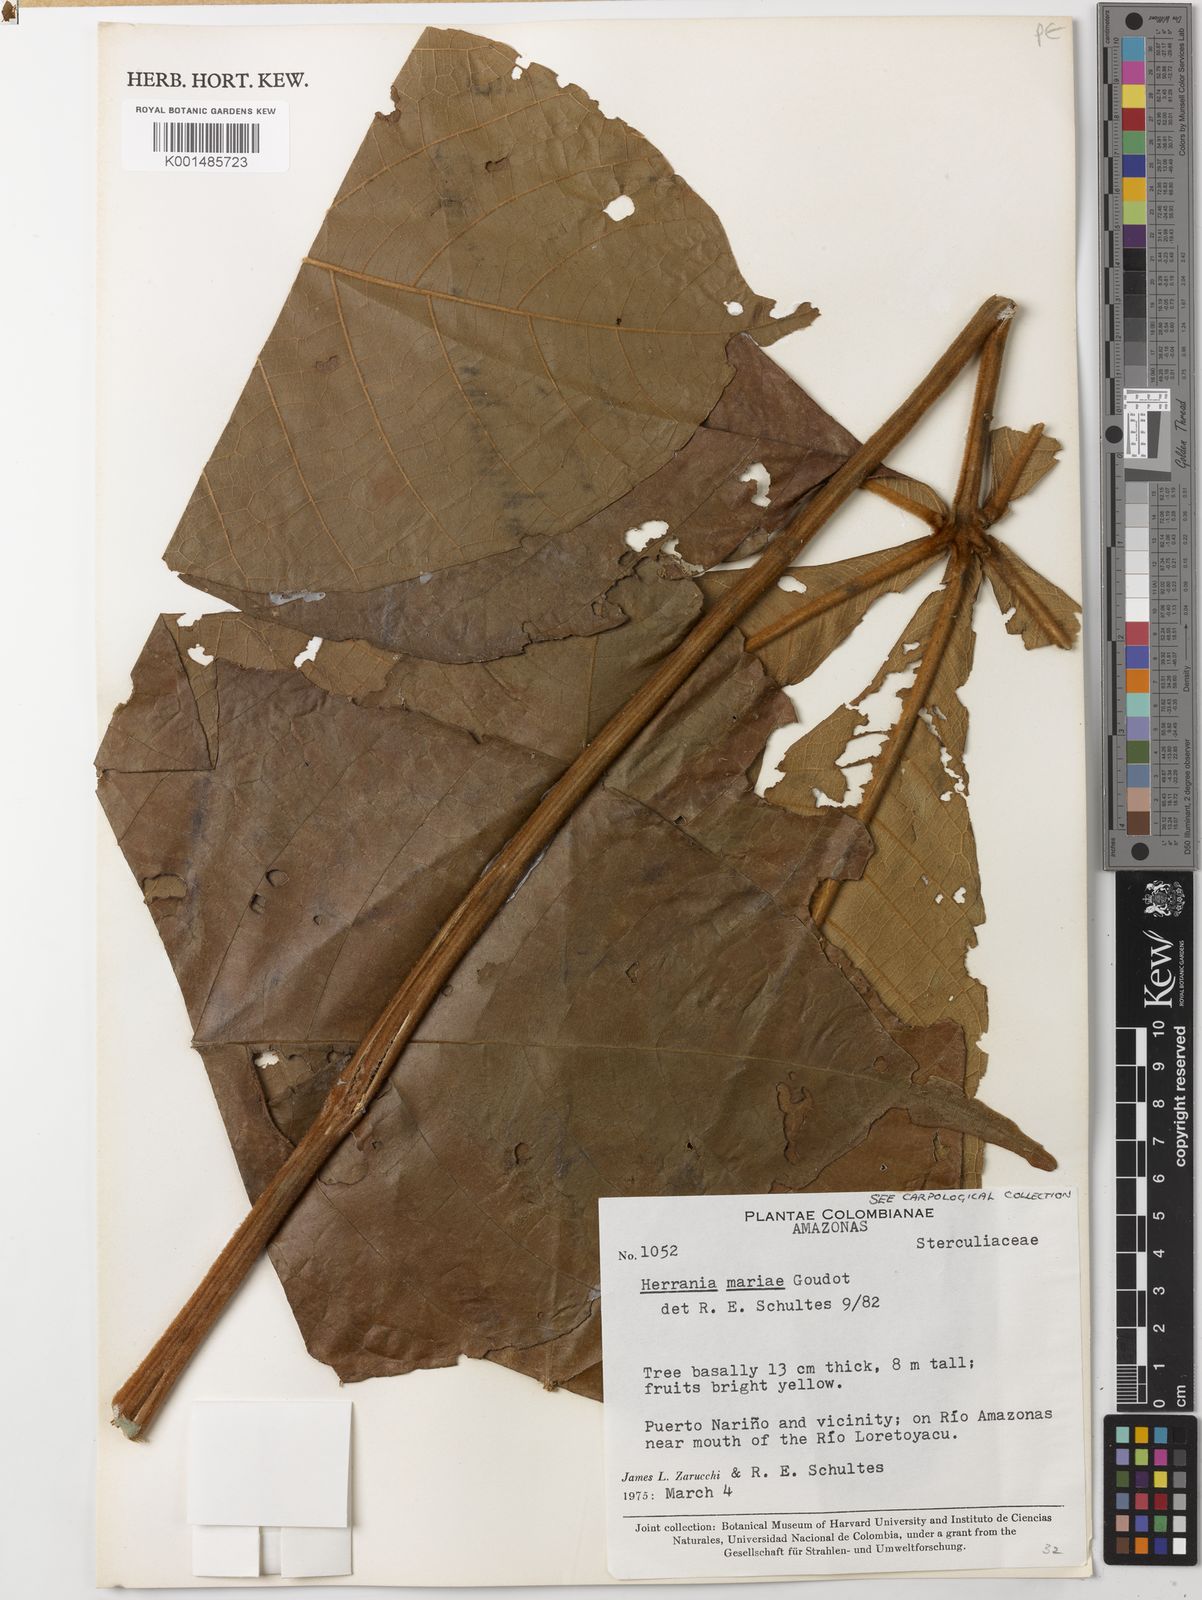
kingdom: Plantae
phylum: Tracheophyta
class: Magnoliopsida
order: Malvales
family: Malvaceae
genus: Herrania
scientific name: Herrania mariae
